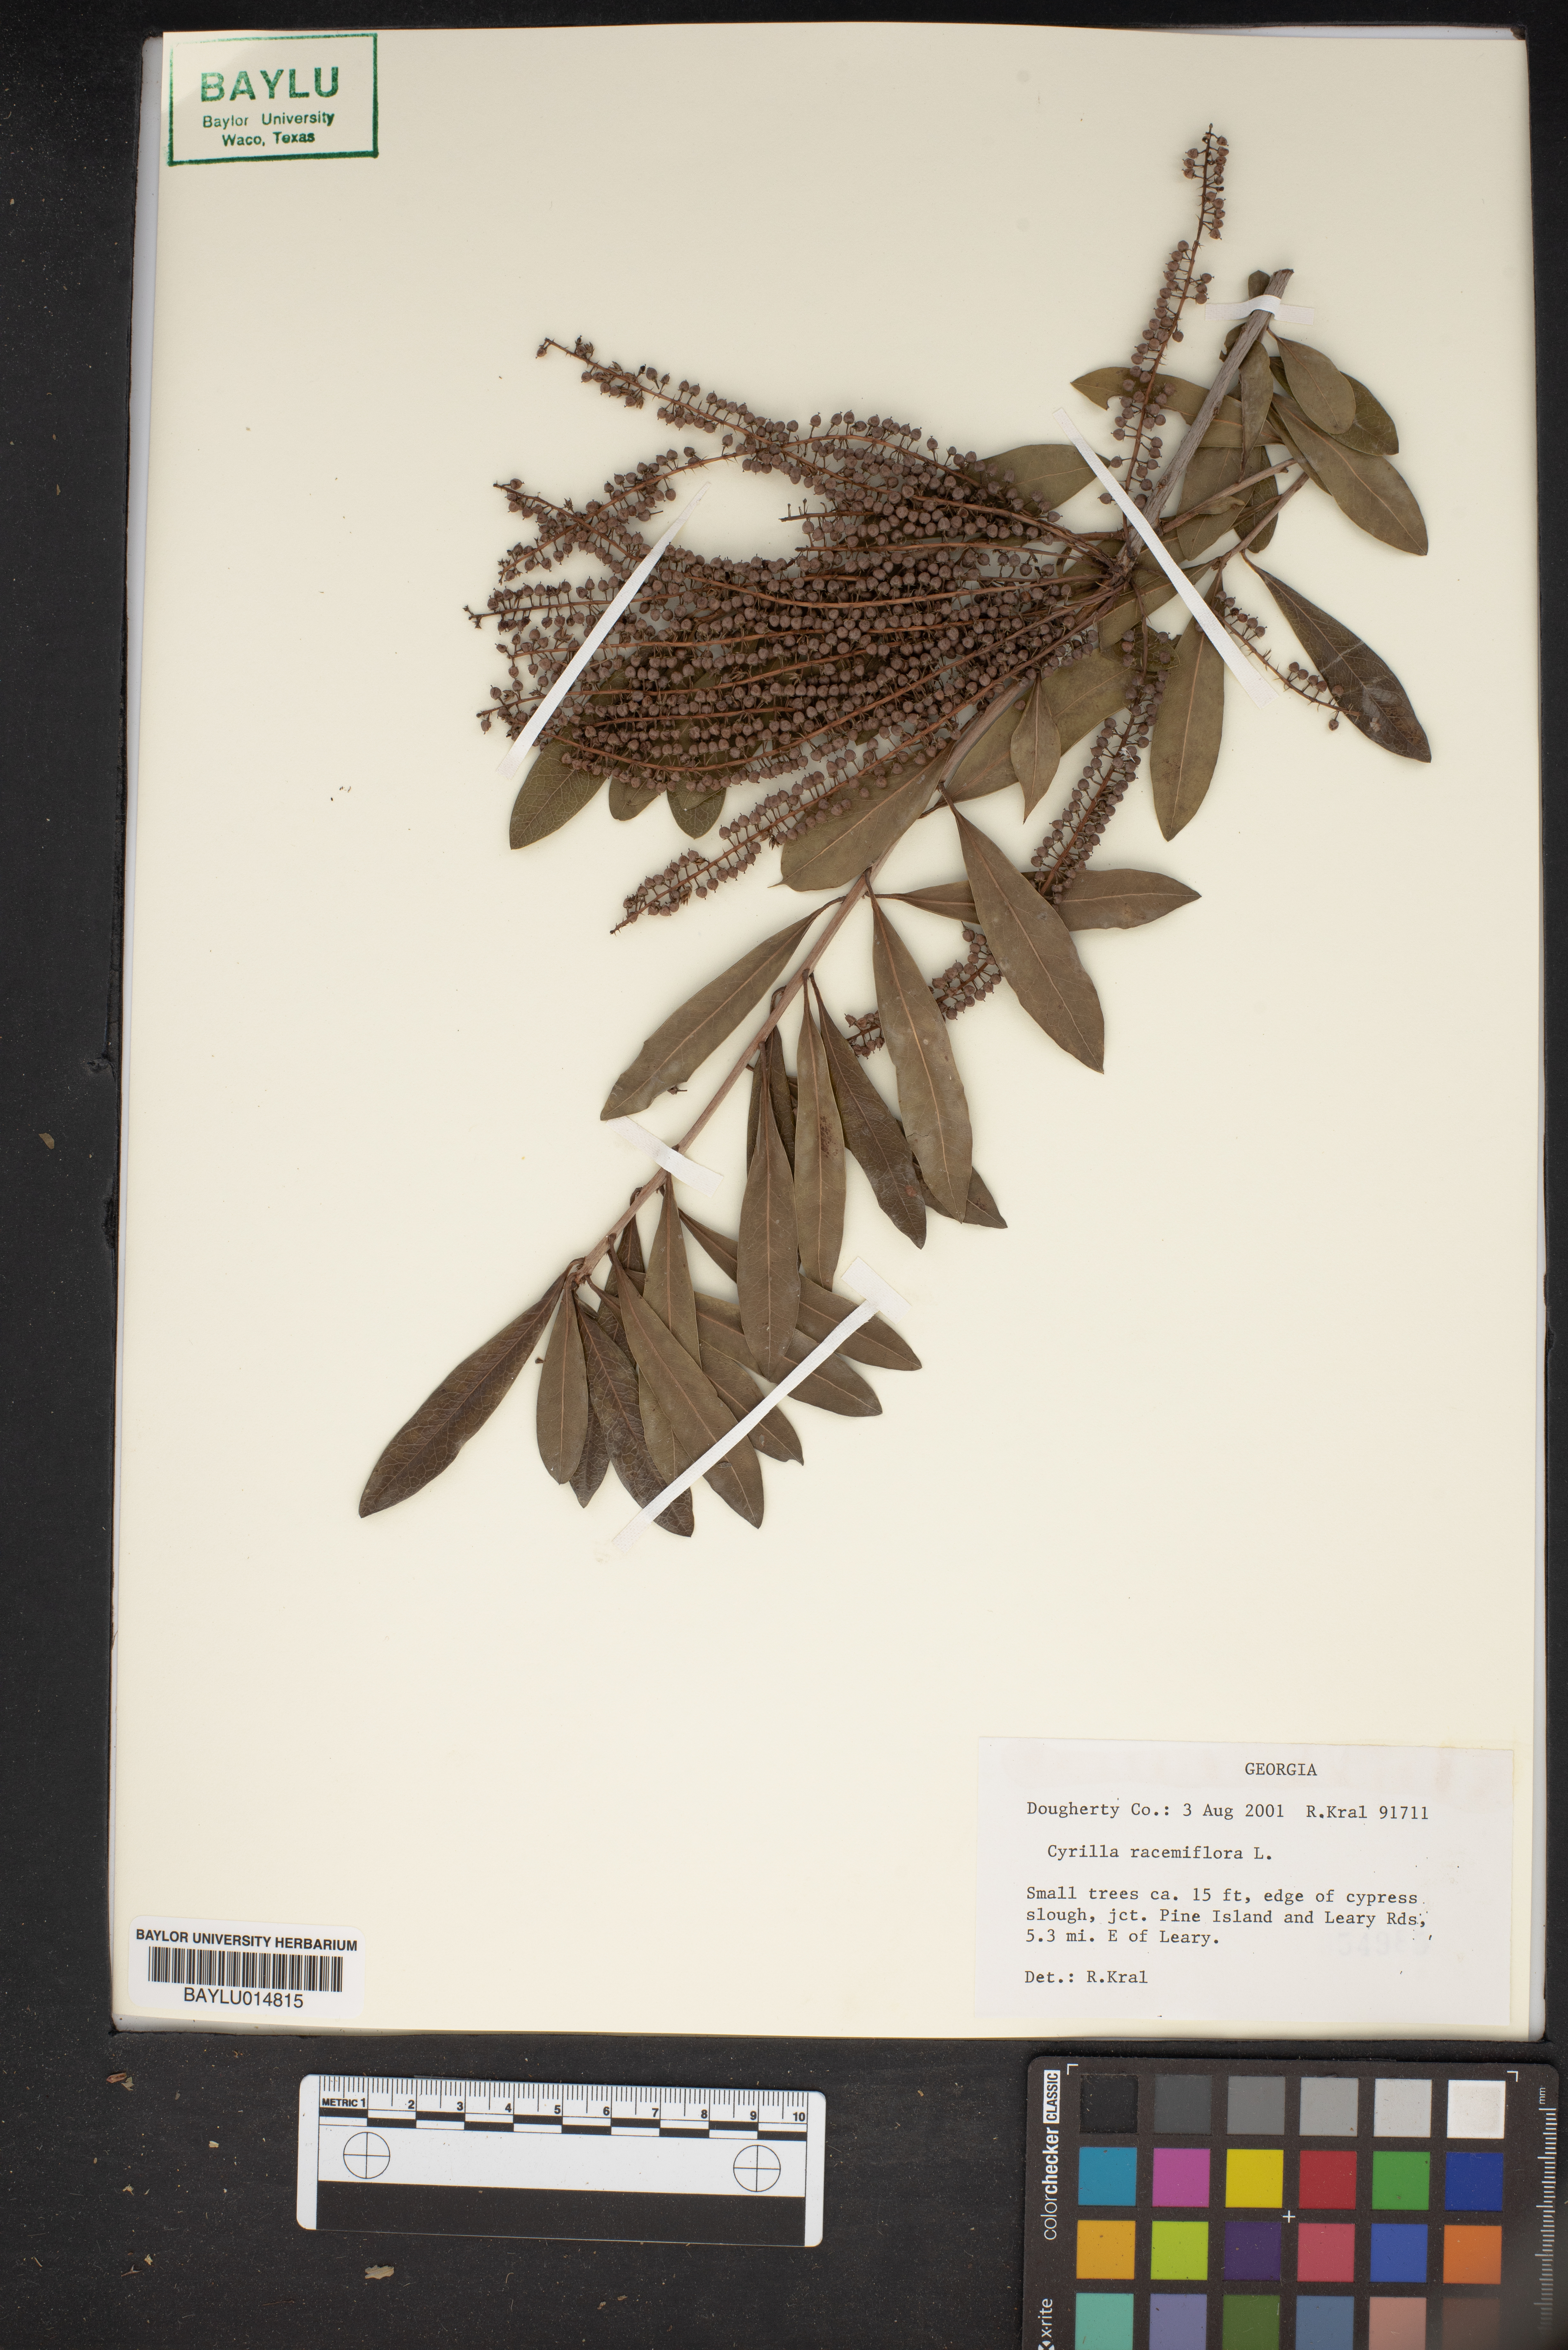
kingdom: Plantae
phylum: Tracheophyta
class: Magnoliopsida
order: Ericales
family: Cyrillaceae
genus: Cyrilla
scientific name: Cyrilla racemiflora
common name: Black titi
